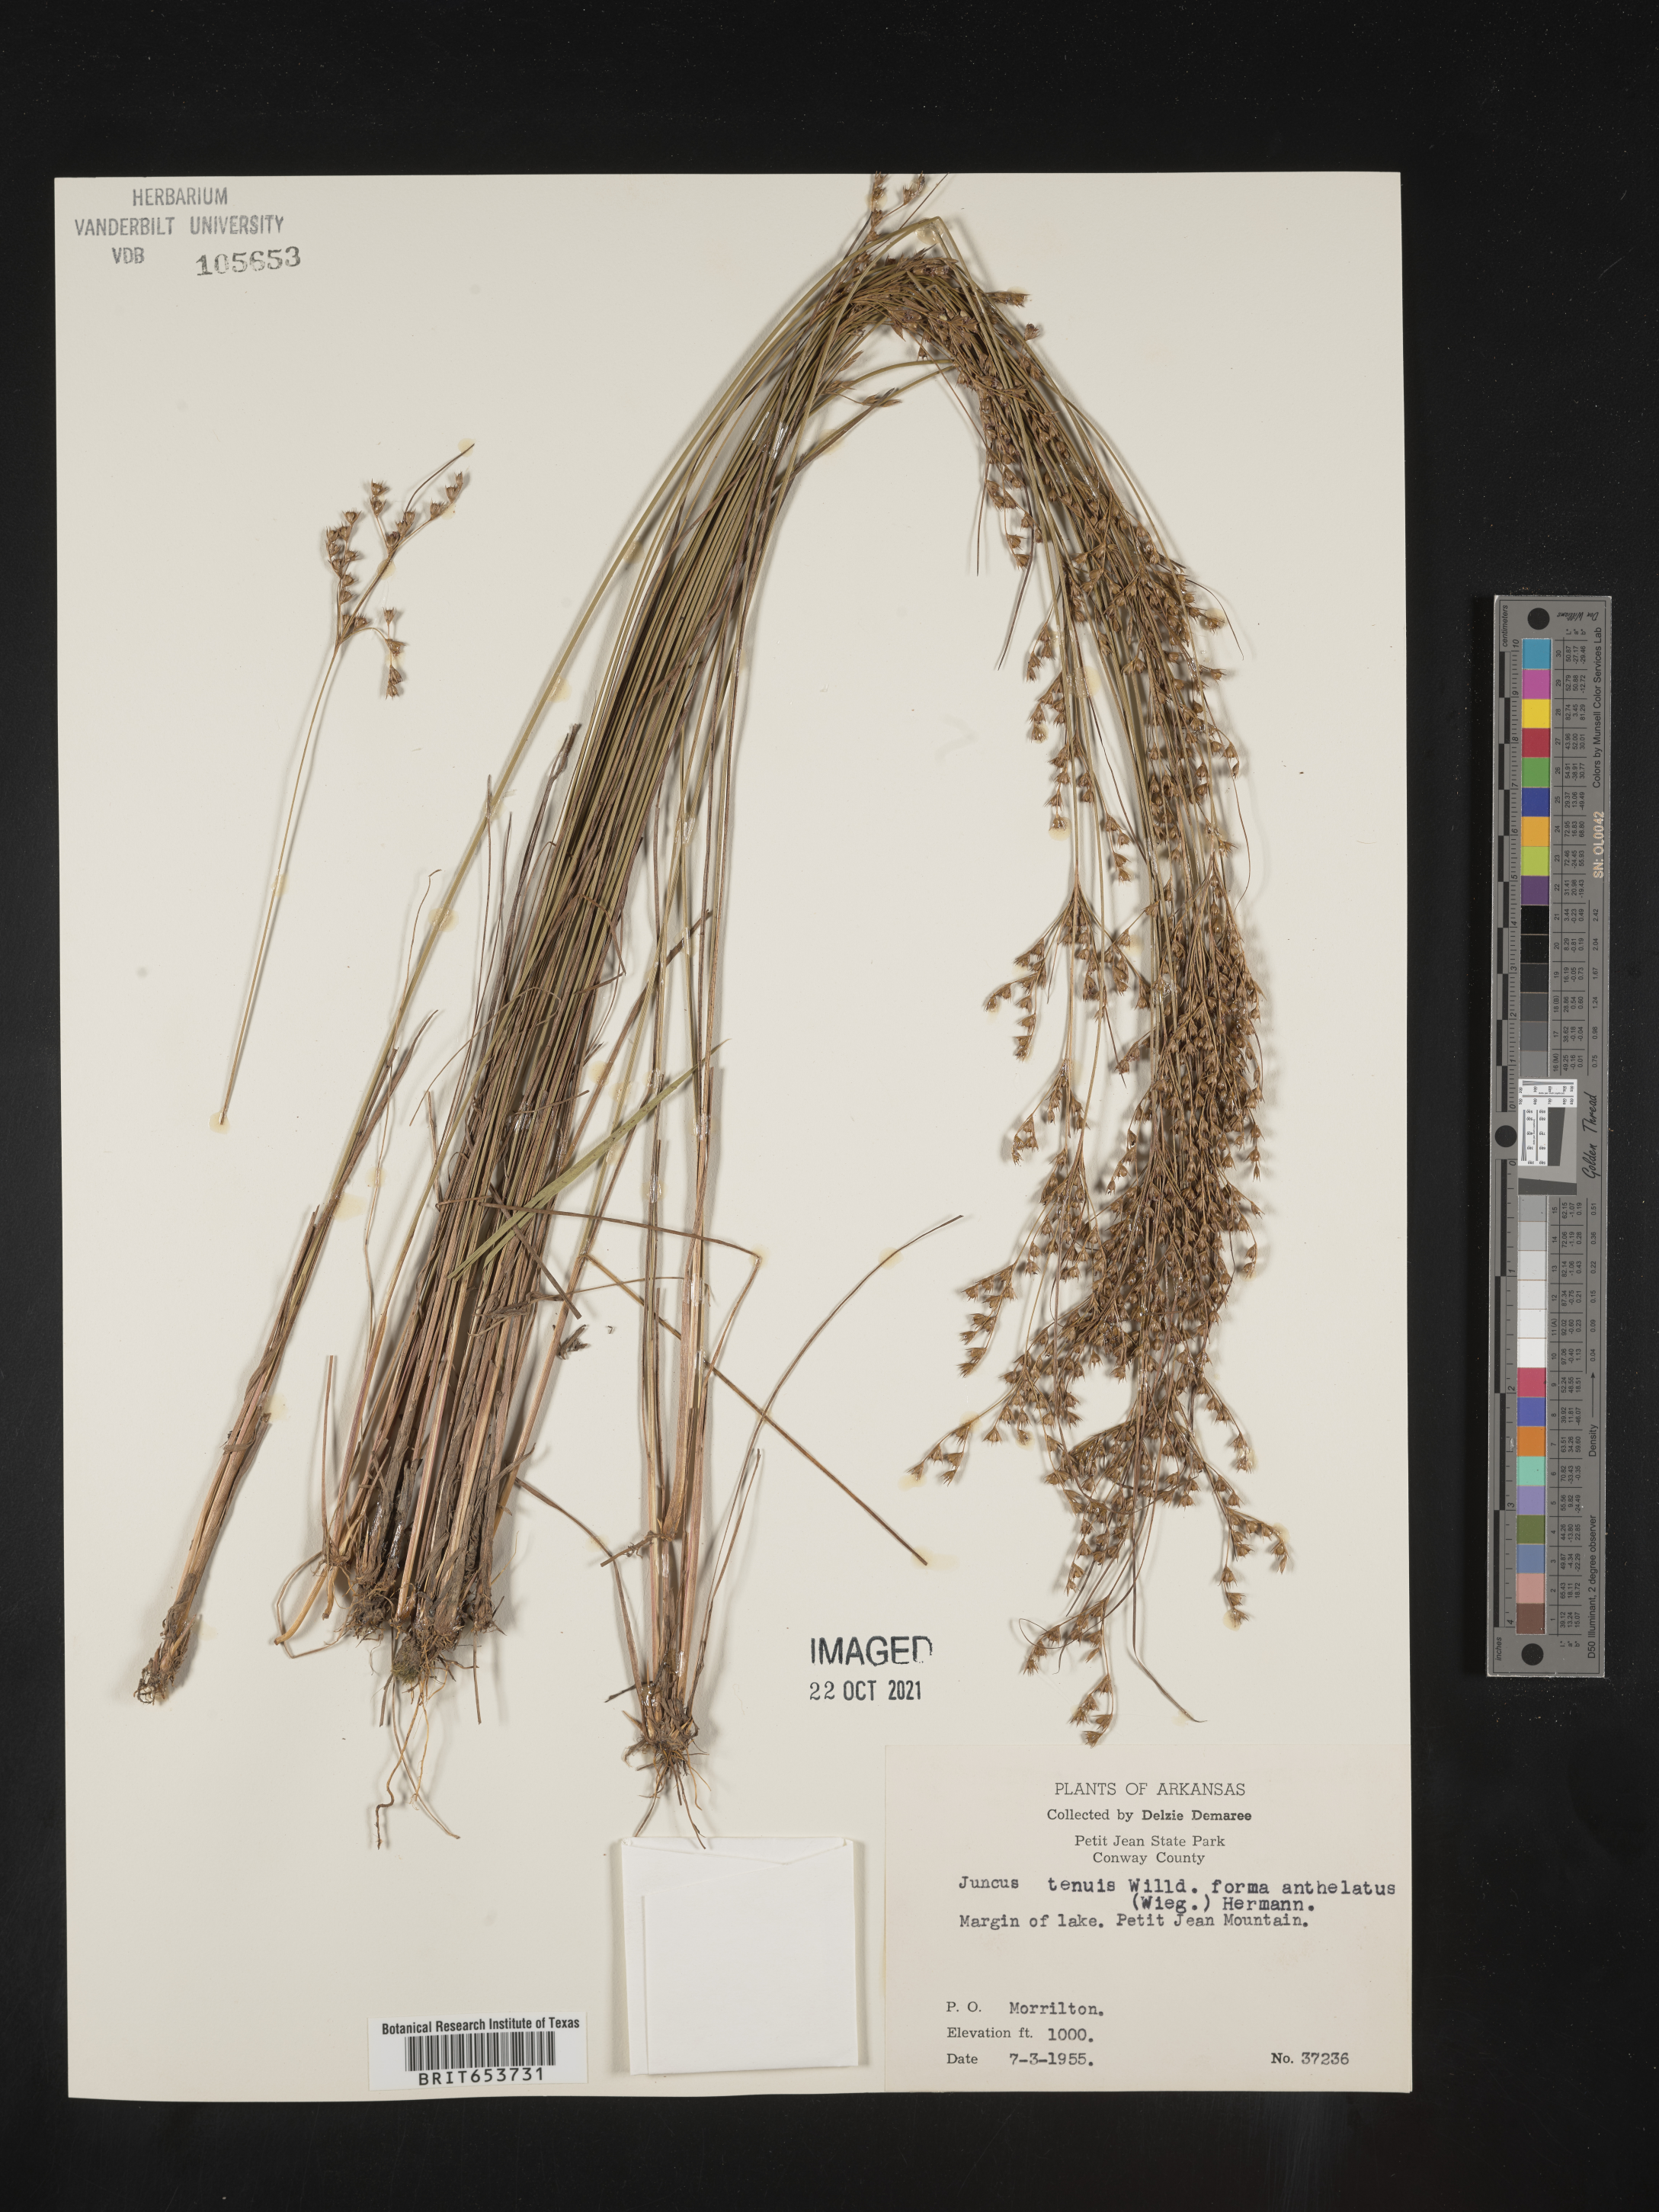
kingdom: Plantae
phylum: Tracheophyta
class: Liliopsida
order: Poales
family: Juncaceae
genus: Juncus
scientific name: Juncus tenuis
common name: Slender rush
